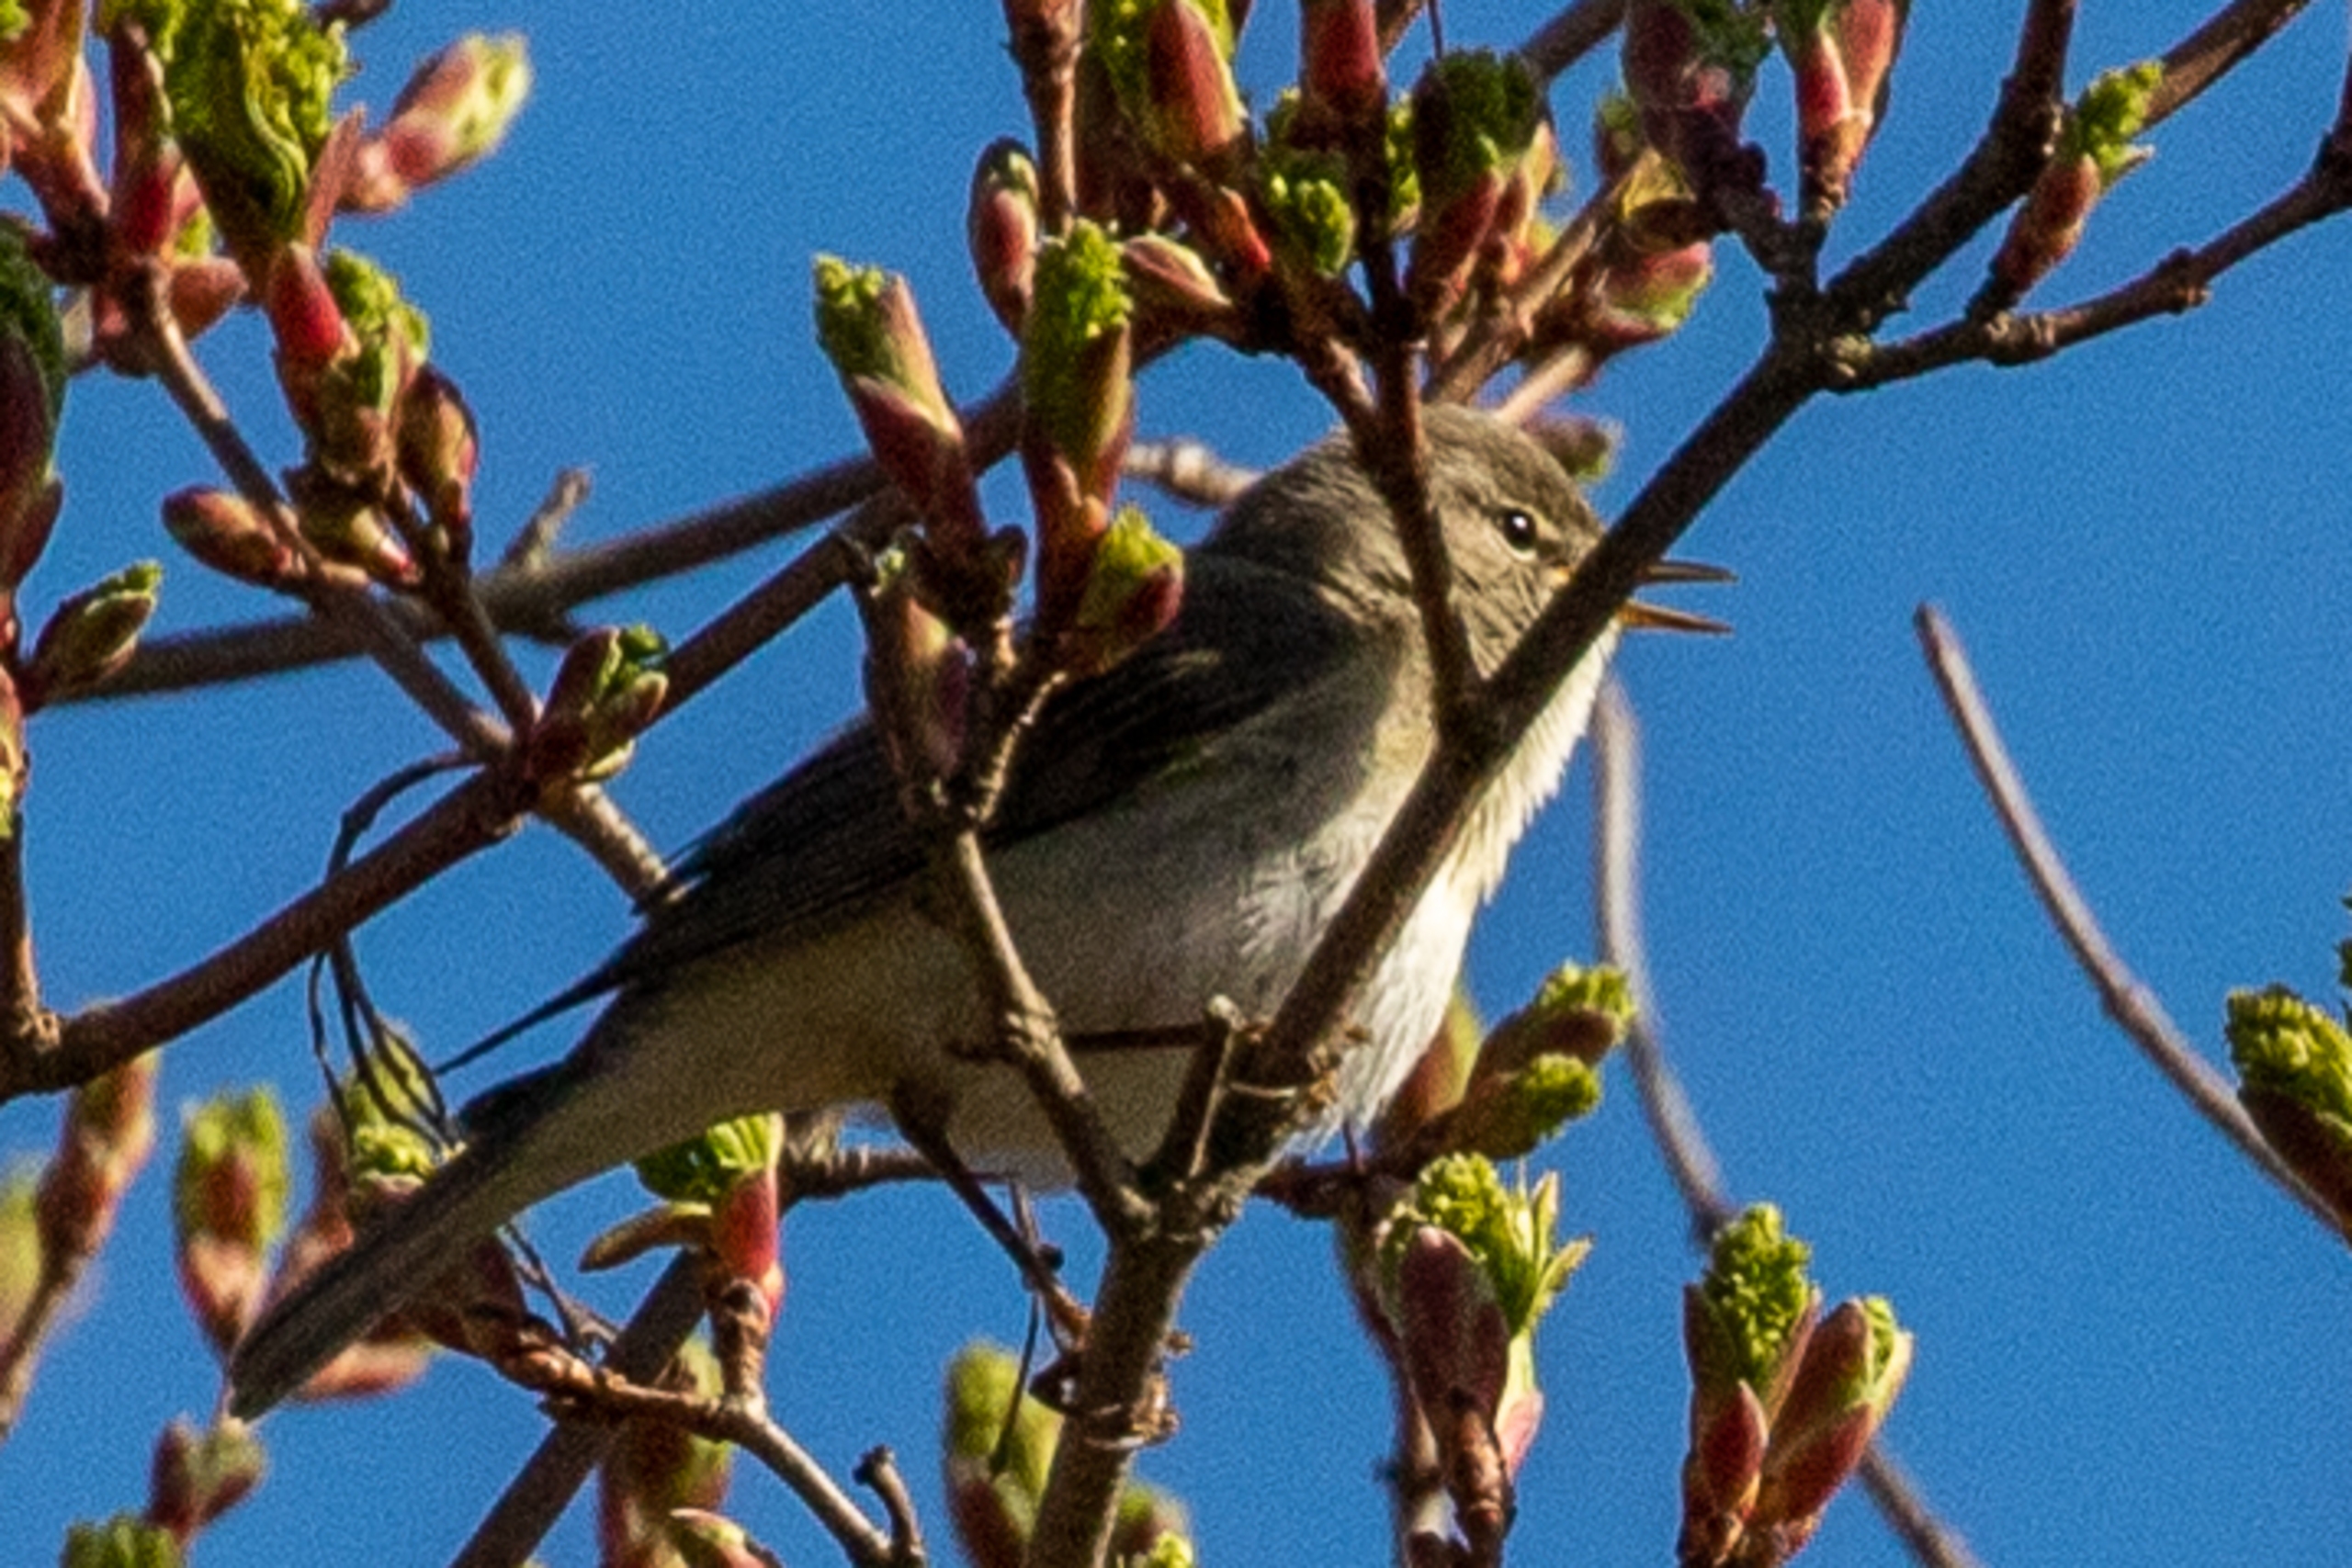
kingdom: Animalia
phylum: Chordata
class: Aves
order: Passeriformes
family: Phylloscopidae
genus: Phylloscopus
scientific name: Phylloscopus trochilus
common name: Løvsanger
